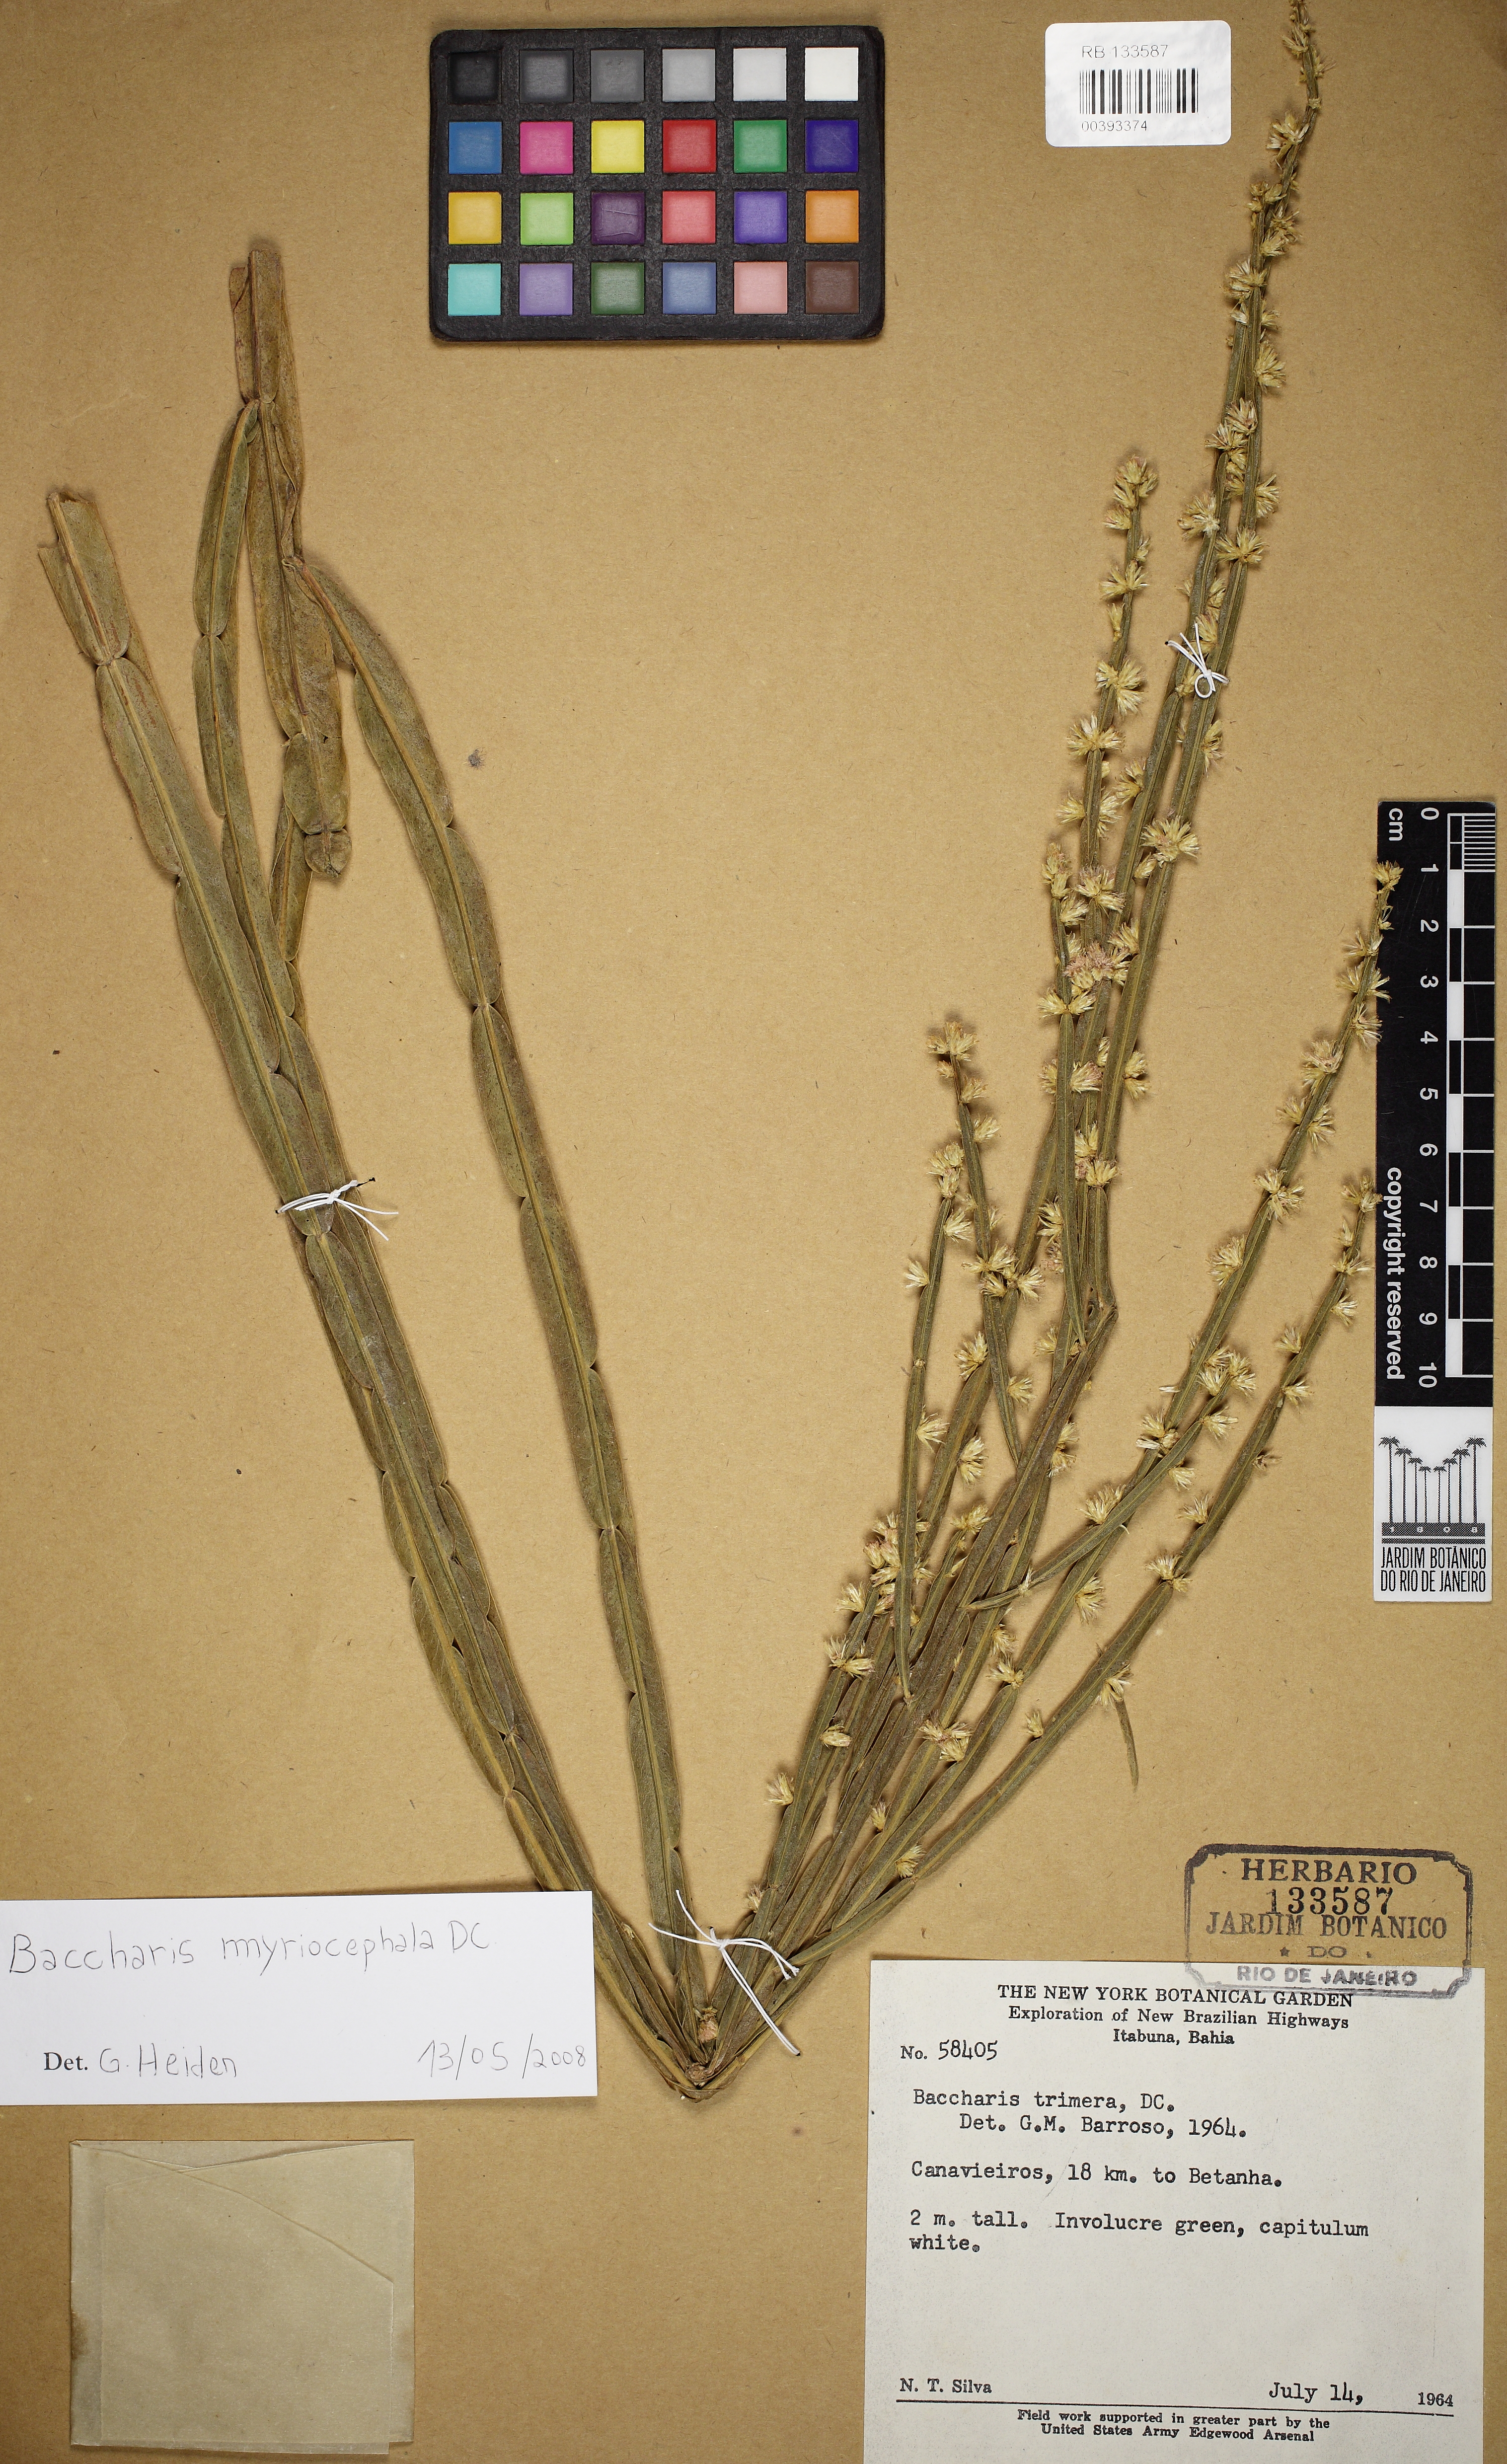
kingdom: Plantae
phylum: Tracheophyta
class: Magnoliopsida
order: Asterales
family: Asteraceae
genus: Baccharis
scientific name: Baccharis myriocephala
